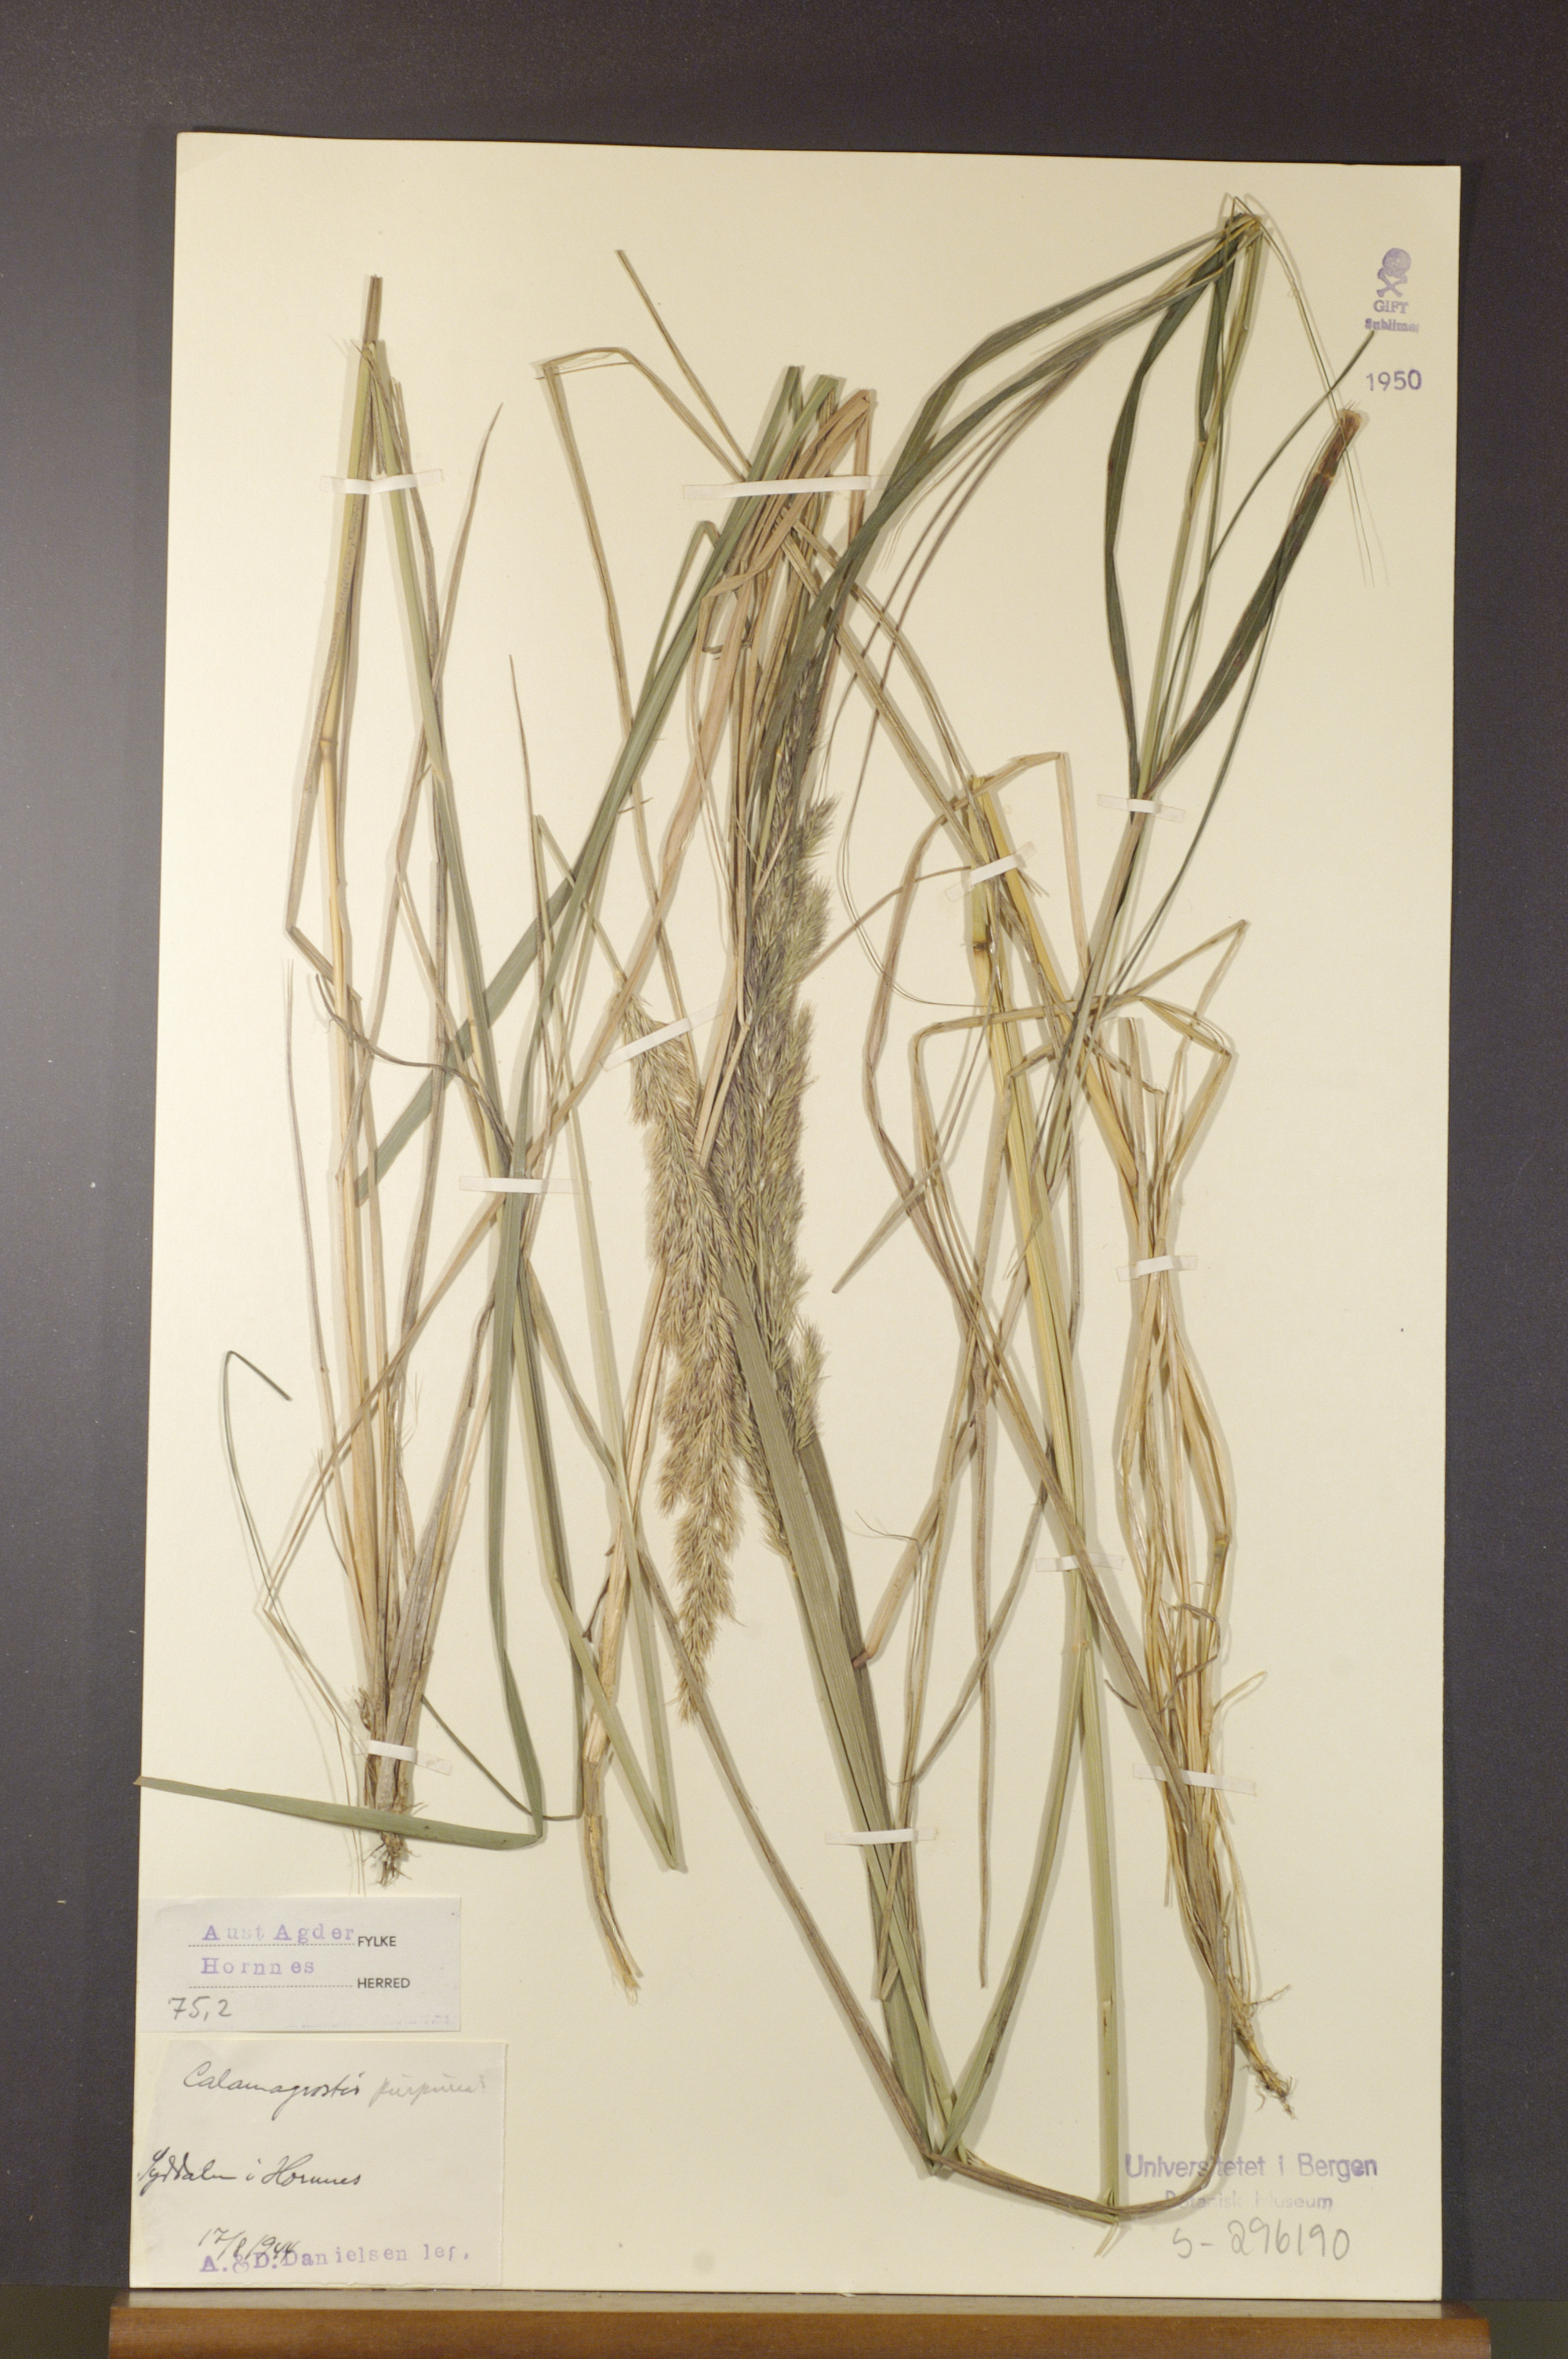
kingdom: Plantae
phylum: Tracheophyta
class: Liliopsida
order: Poales
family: Poaceae
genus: Calamagrostis
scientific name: Calamagrostis purpurea
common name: Scandinavian small-reed
